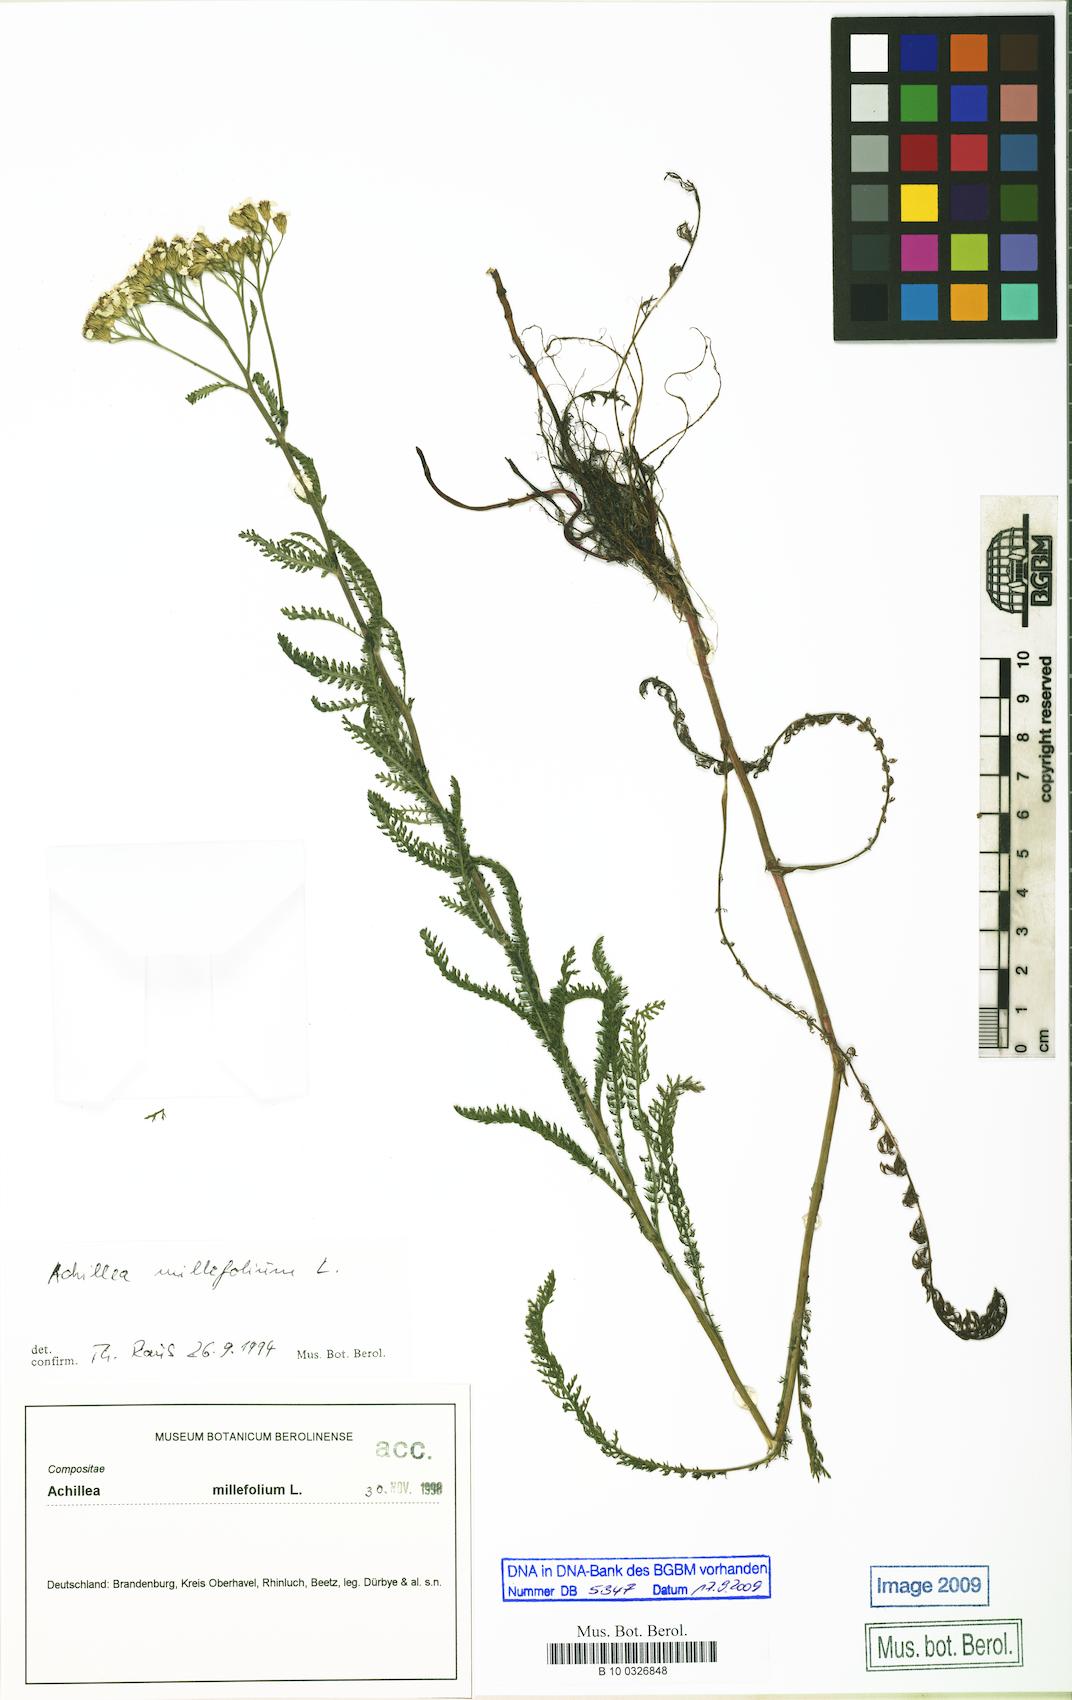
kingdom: Plantae
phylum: Tracheophyta
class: Magnoliopsida
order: Asterales
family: Asteraceae
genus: Achillea
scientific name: Achillea millefolium
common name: Yarrow
